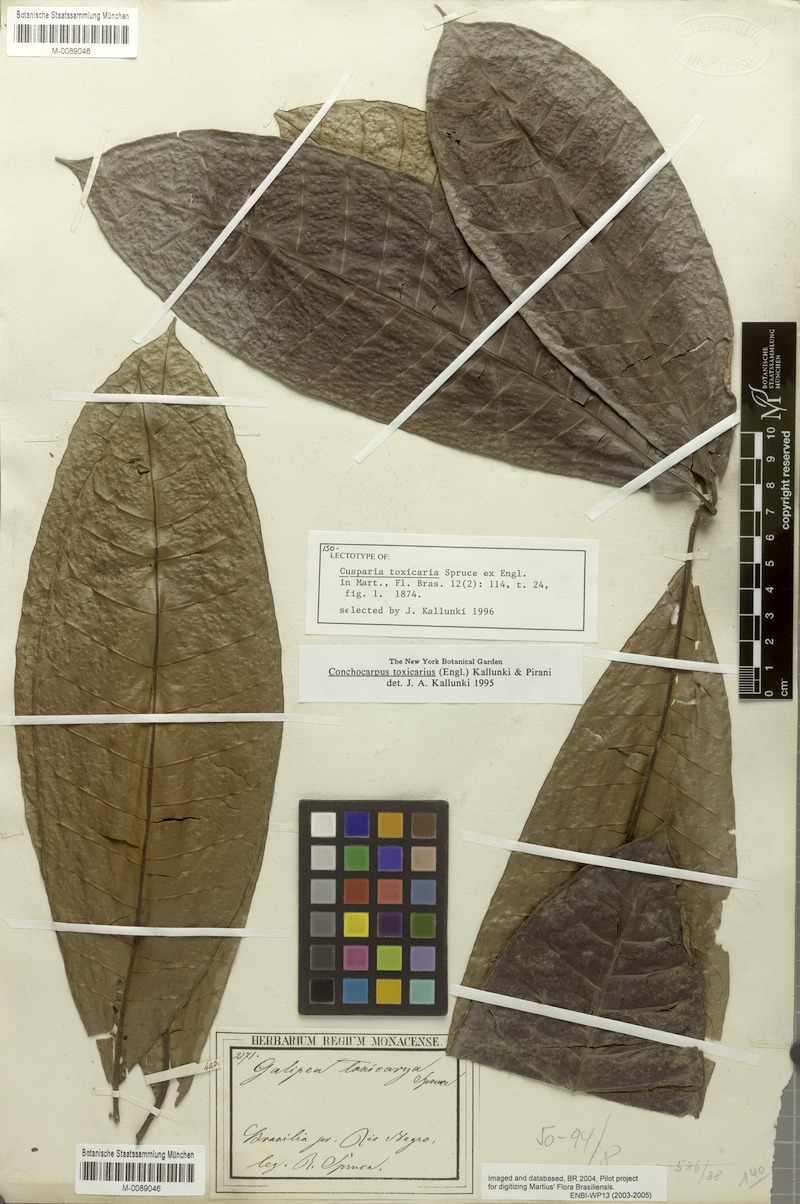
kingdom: Plantae
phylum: Tracheophyta
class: Magnoliopsida
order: Sapindales
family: Rutaceae
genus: Conchocarpus
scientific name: Conchocarpus toxicarius
